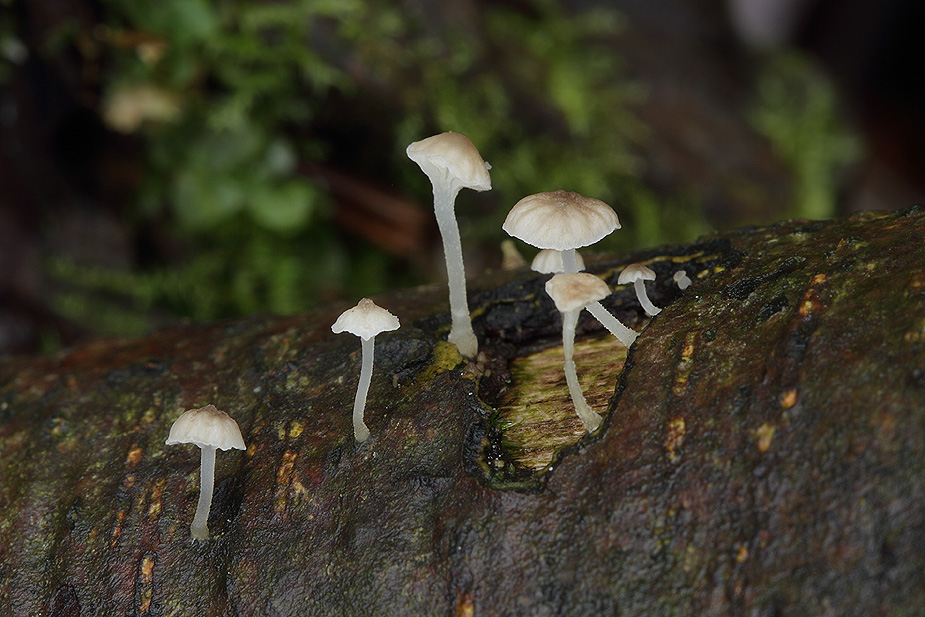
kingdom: Fungi
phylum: Basidiomycota
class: Agaricomycetes
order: Agaricales
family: Porotheleaceae
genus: Phloeomana
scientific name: Phloeomana speirea
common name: kvist-huesvamp
